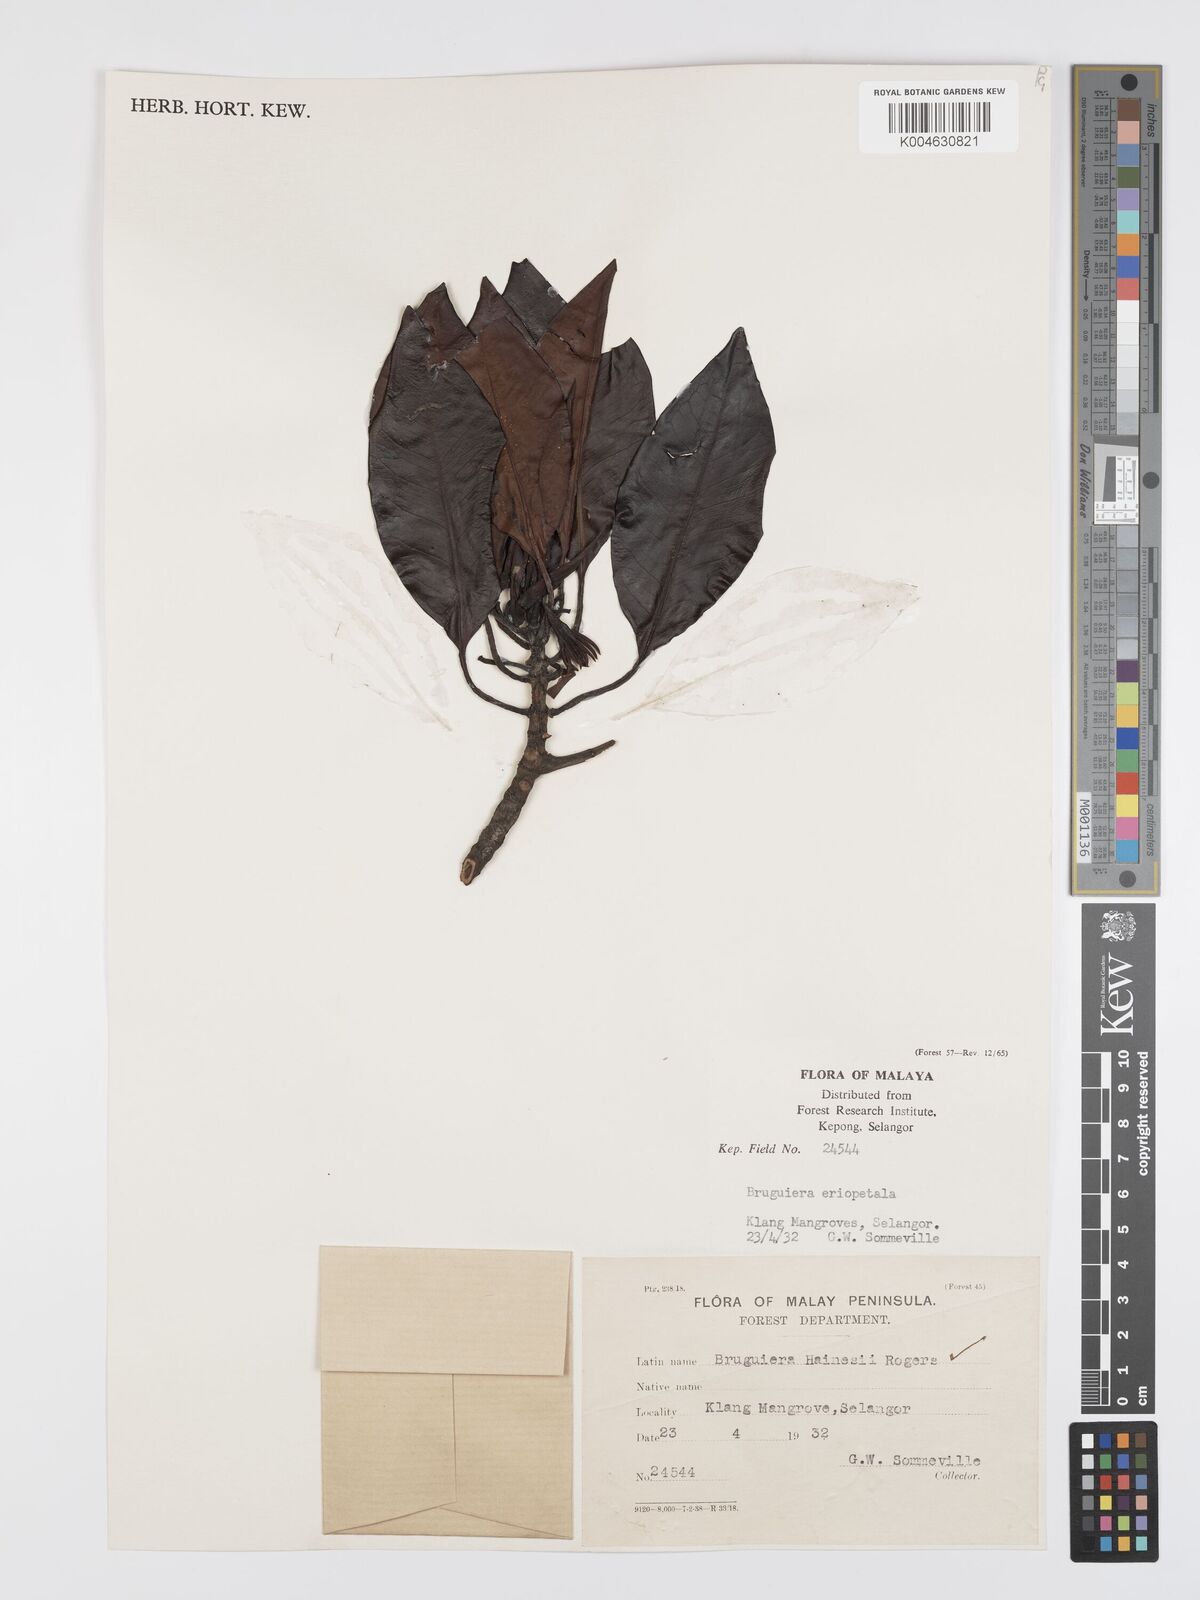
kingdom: Plantae
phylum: Tracheophyta
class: Magnoliopsida
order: Malpighiales
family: Rhizophoraceae
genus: Bruguiera
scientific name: Bruguiera hainesii
